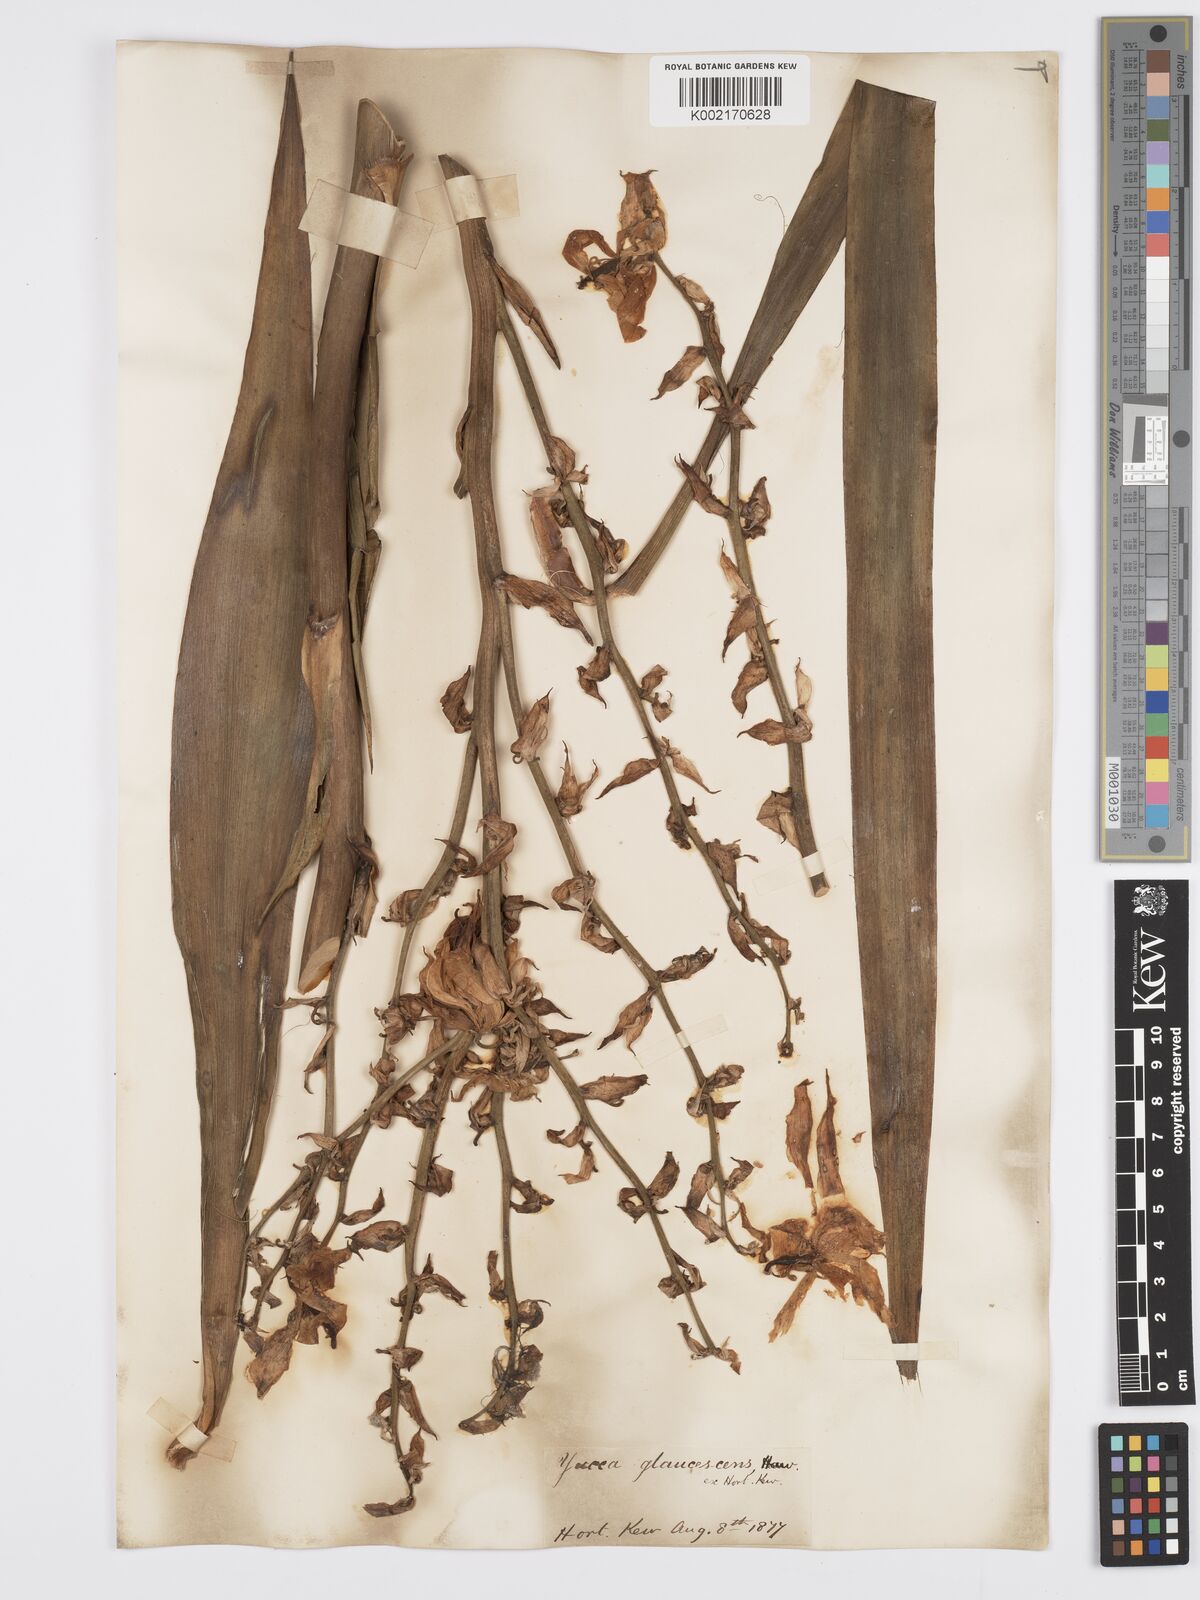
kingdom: Plantae
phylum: Tracheophyta
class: Liliopsida
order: Asparagales
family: Asparagaceae
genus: Yucca
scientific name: Yucca flaccida
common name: Adam's-needle
